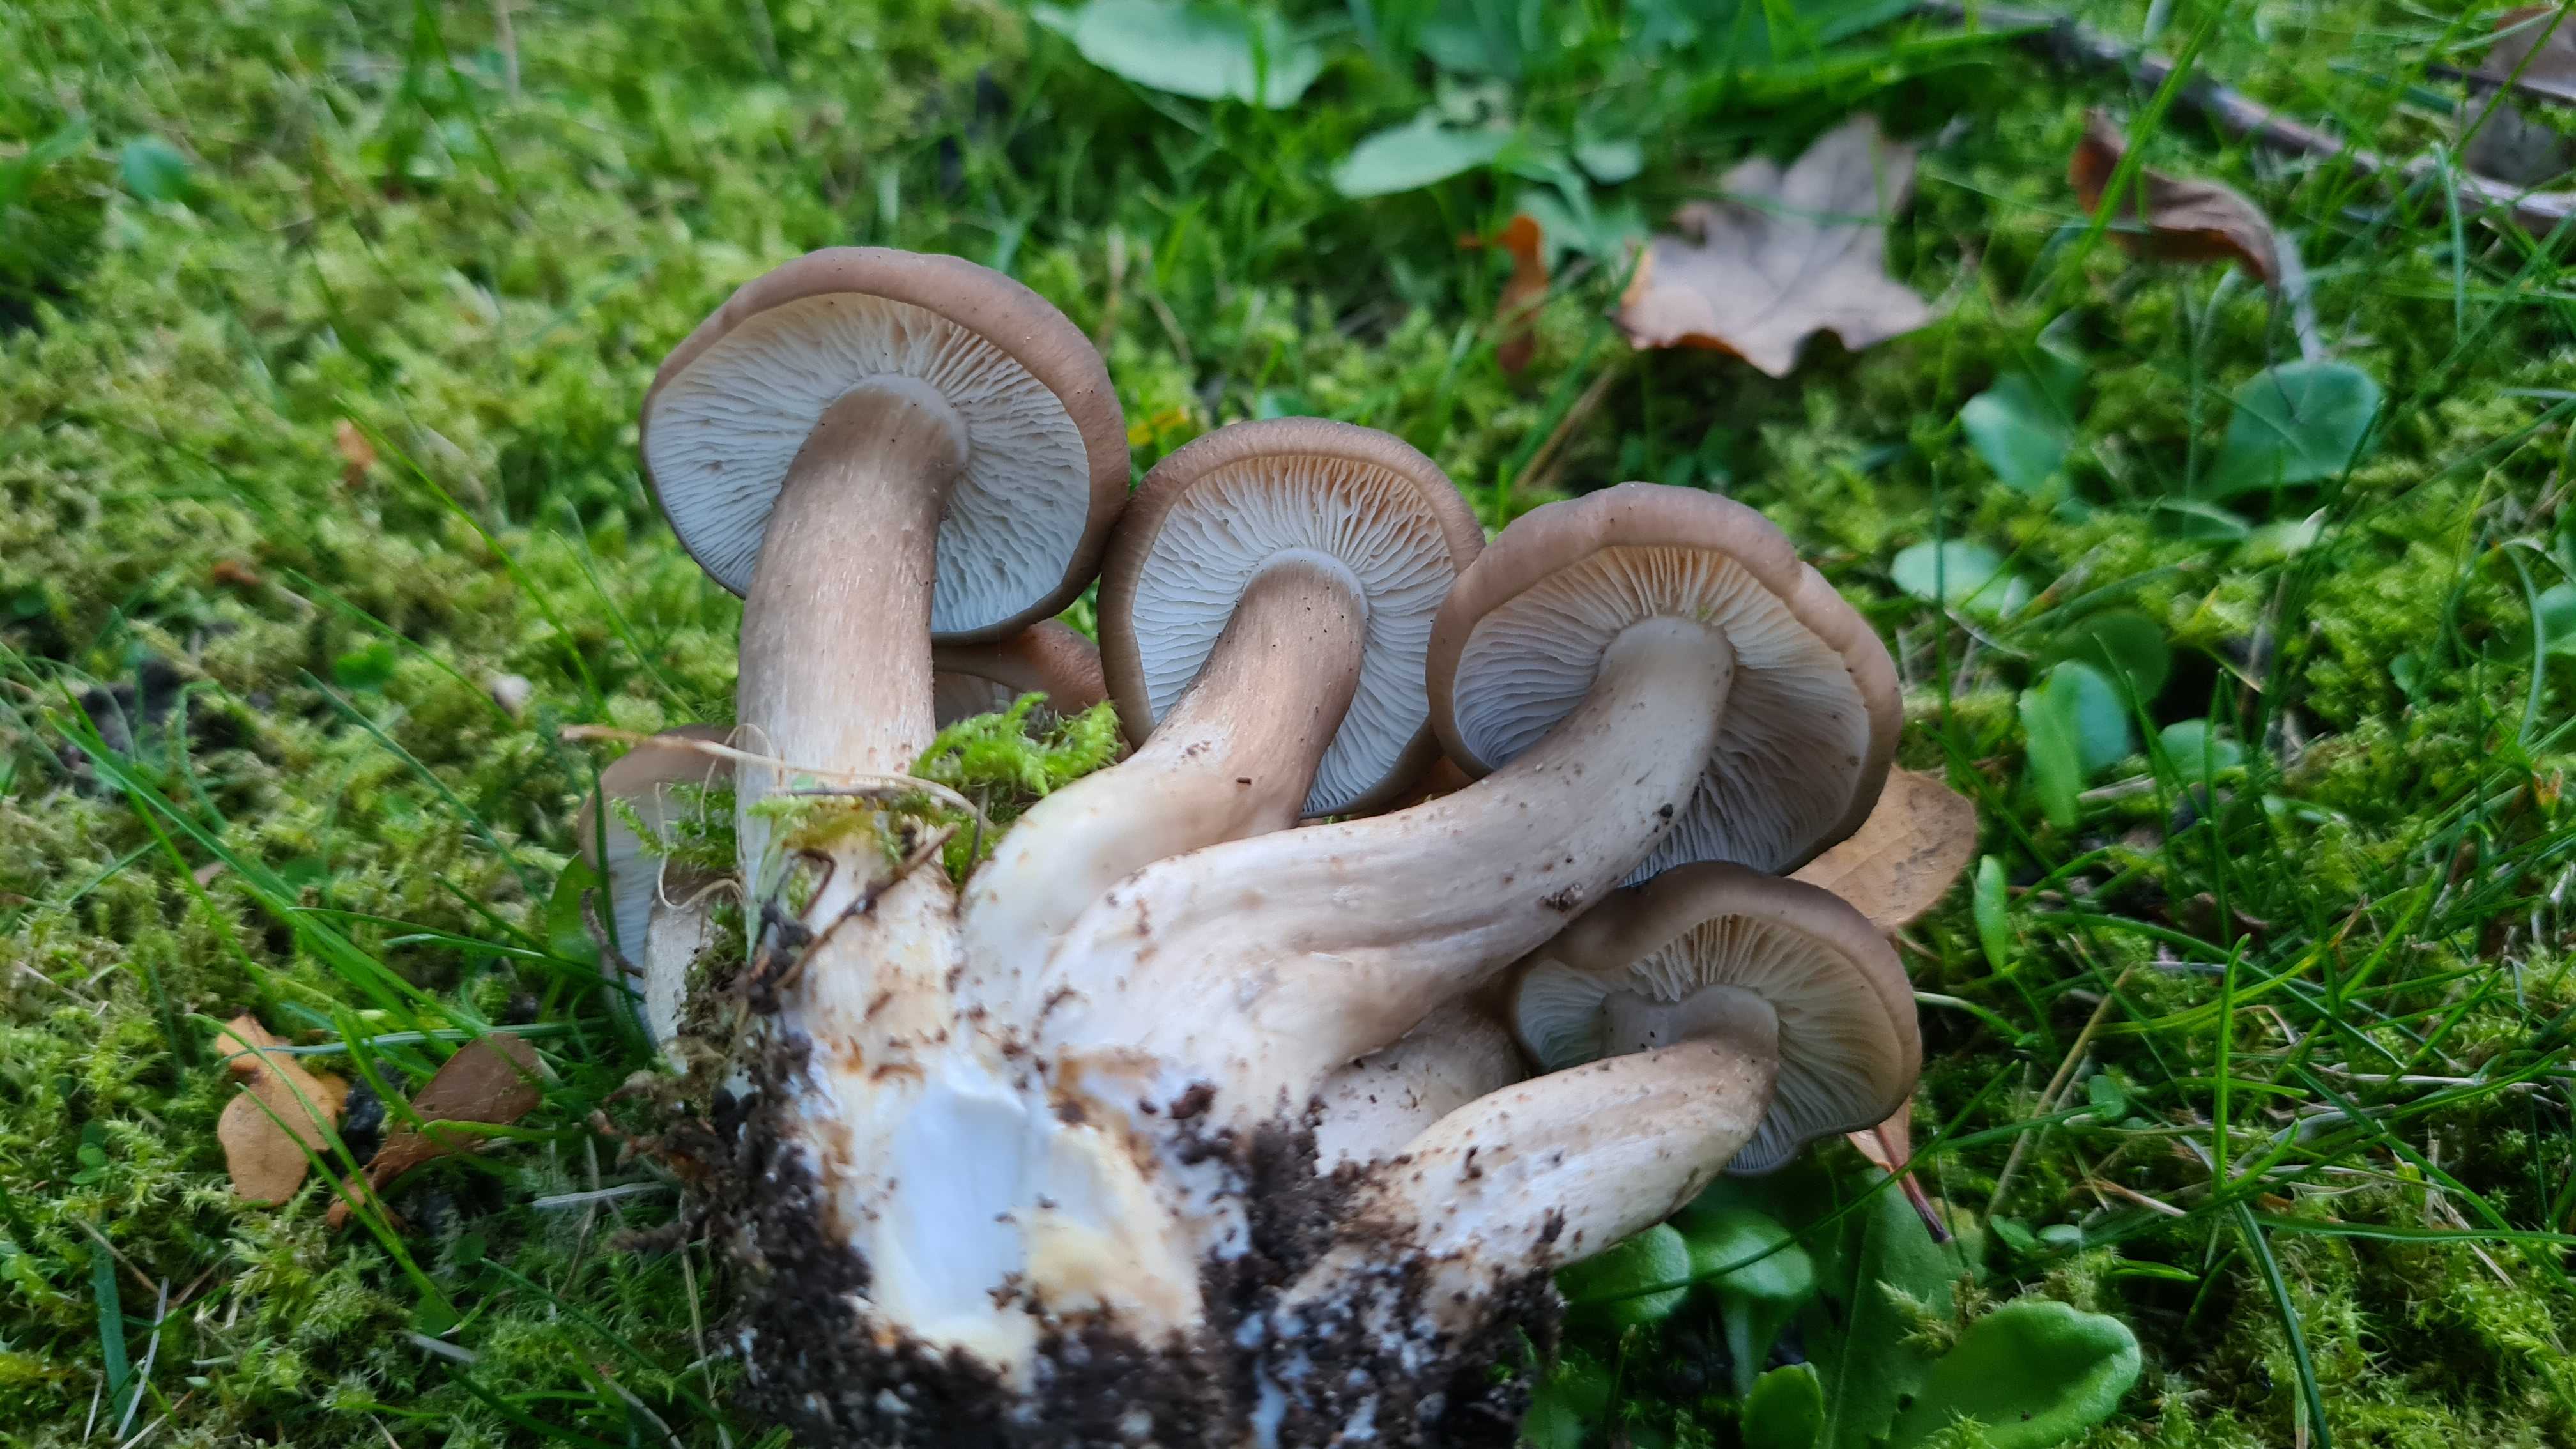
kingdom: Fungi
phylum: Basidiomycota
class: Agaricomycetes
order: Agaricales
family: Lyophyllaceae
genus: Lyophyllum
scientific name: Lyophyllum decastes
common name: røggrå gråblad
